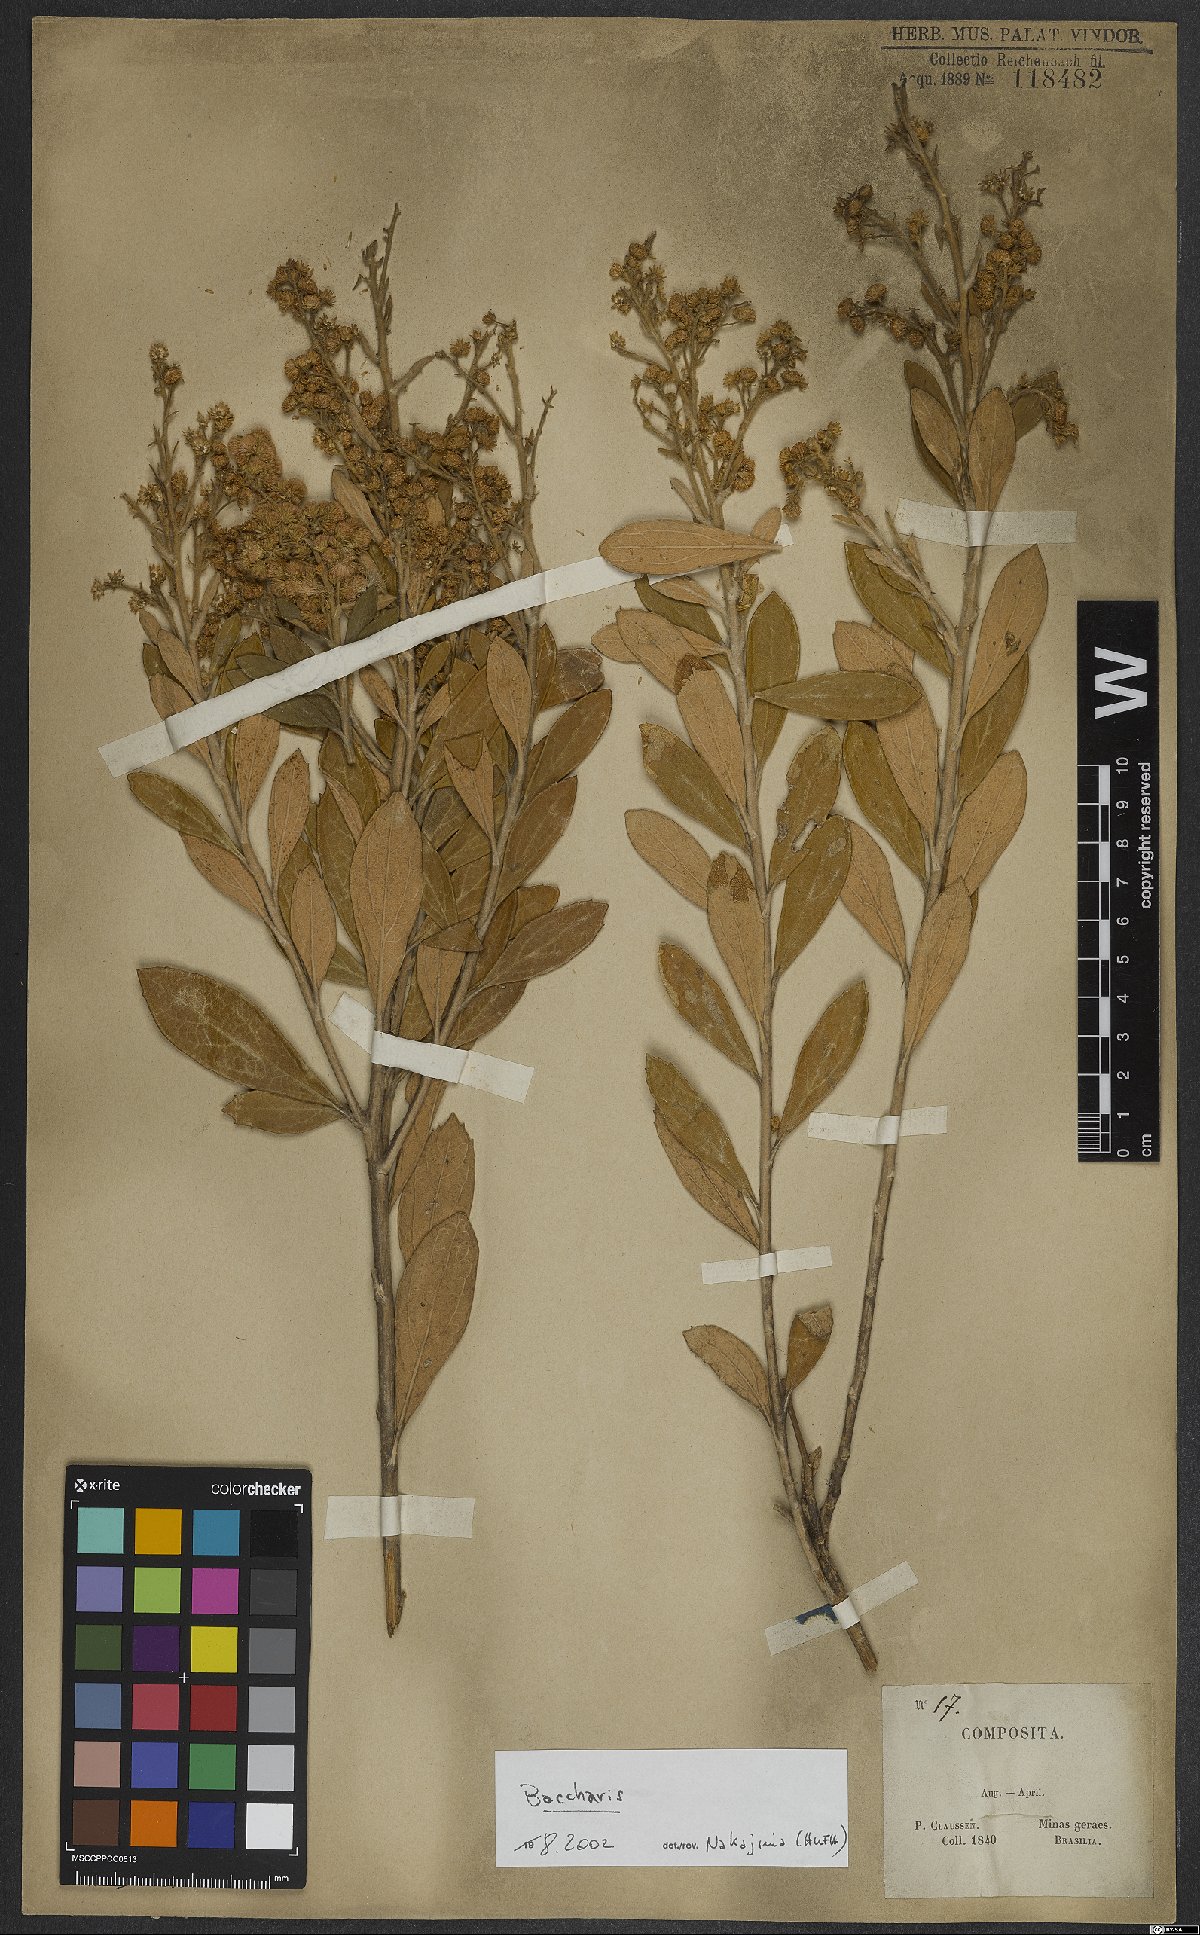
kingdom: Plantae
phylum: Tracheophyta
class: Magnoliopsida
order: Asterales
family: Asteraceae
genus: Baccharis
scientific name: Baccharis
